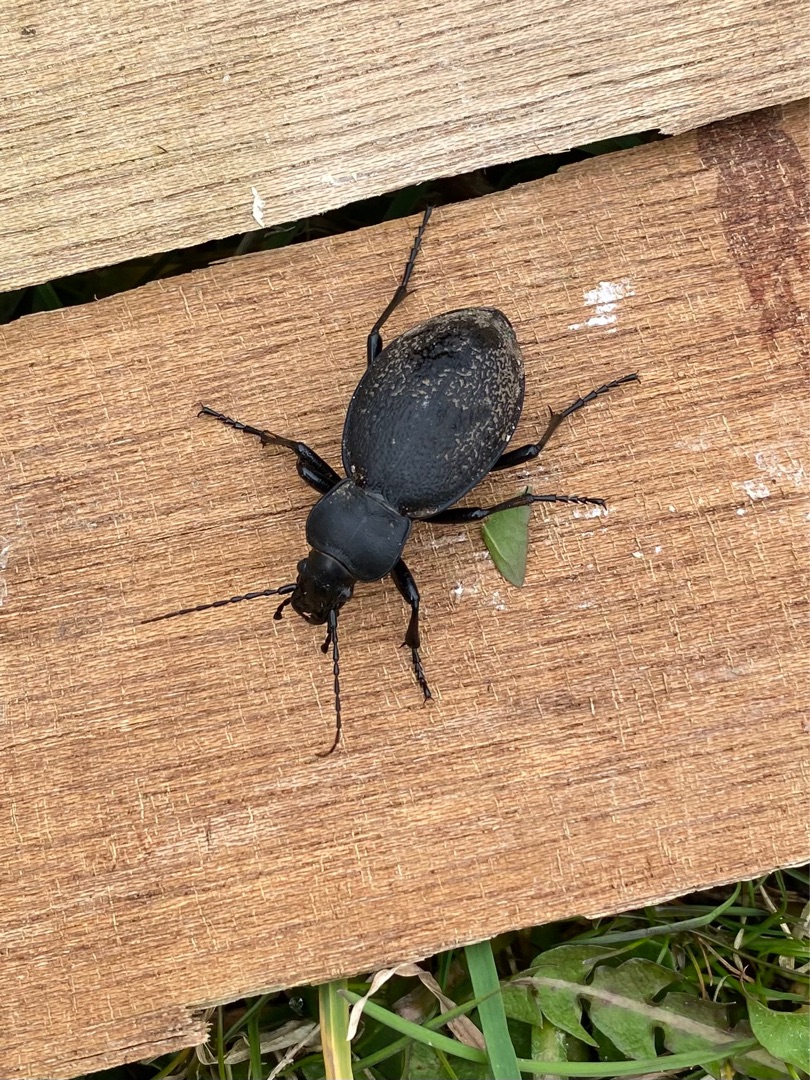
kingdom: Animalia
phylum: Arthropoda
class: Insecta
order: Coleoptera
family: Carabidae
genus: Carabus
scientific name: Carabus coriaceus
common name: Læderløber
